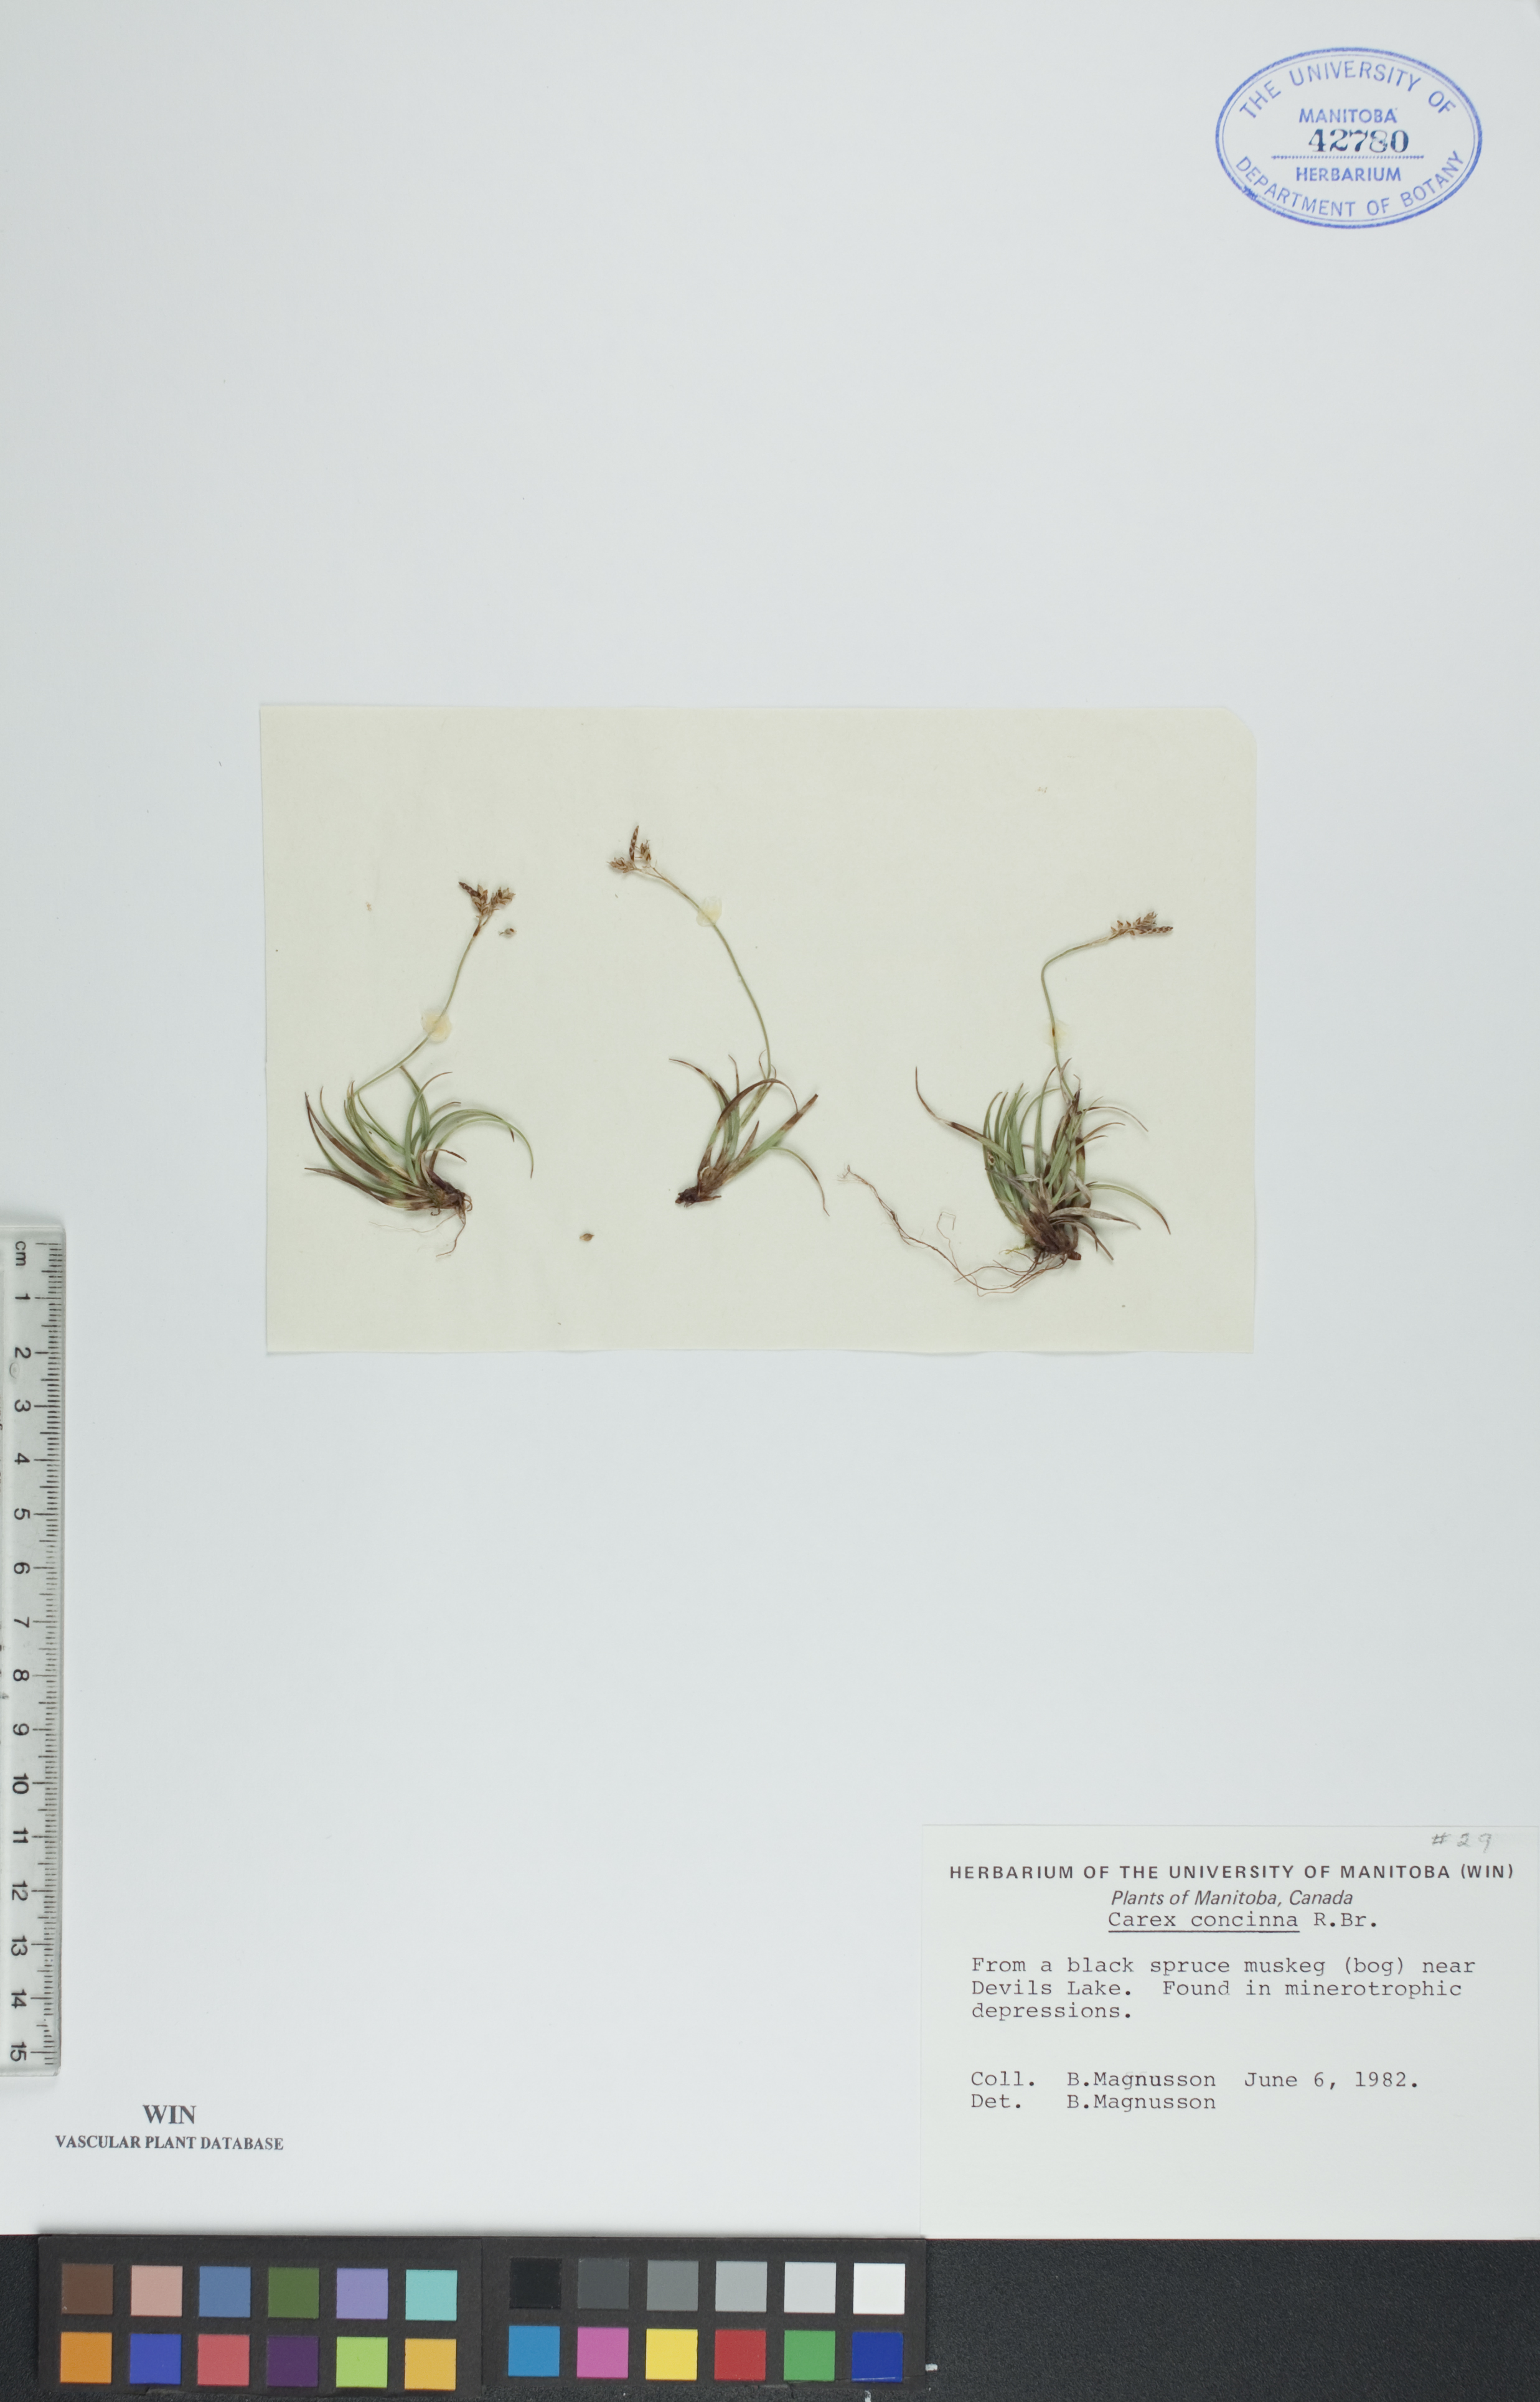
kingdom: Plantae
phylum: Tracheophyta
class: Liliopsida
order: Poales
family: Cyperaceae
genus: Carex
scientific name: Carex concinna
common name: Beautiful sedge
